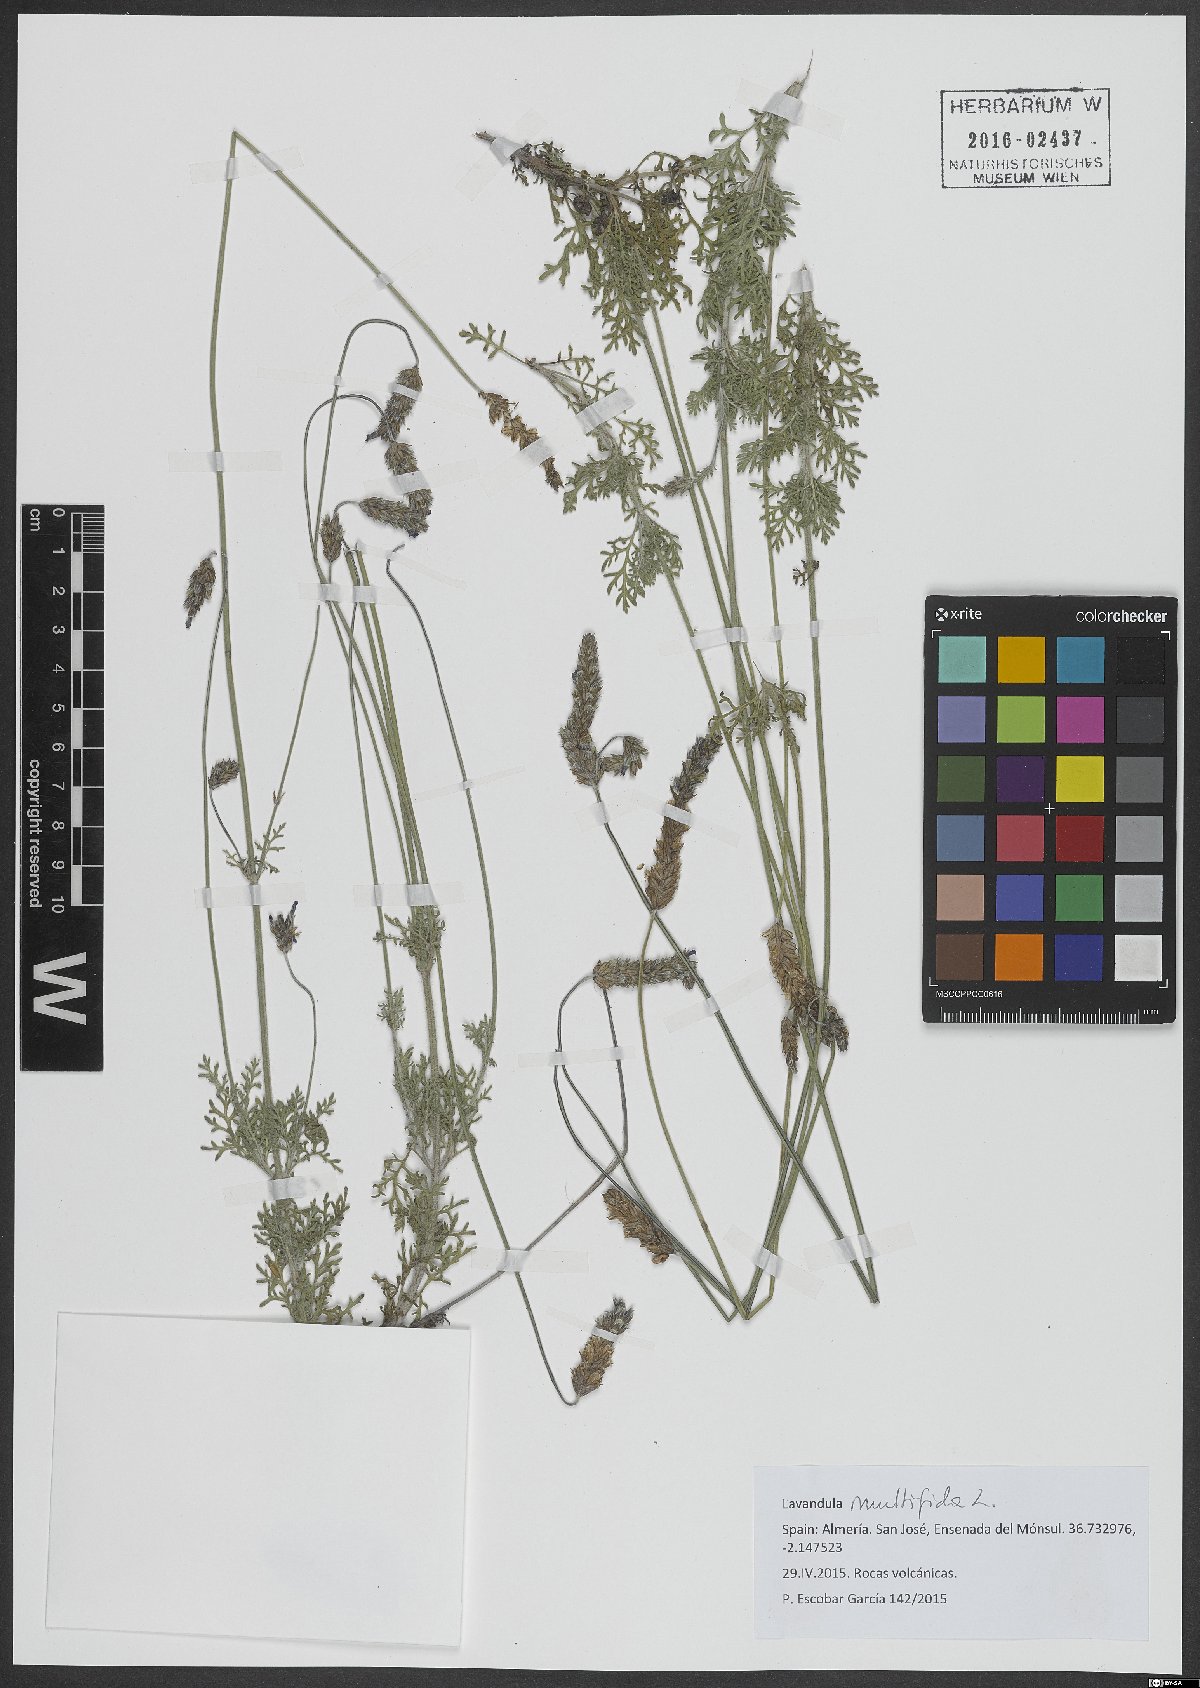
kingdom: Plantae
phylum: Tracheophyta
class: Magnoliopsida
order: Lamiales
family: Lamiaceae
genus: Lavandula
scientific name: Lavandula multifida
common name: Fern-leaf lavender
